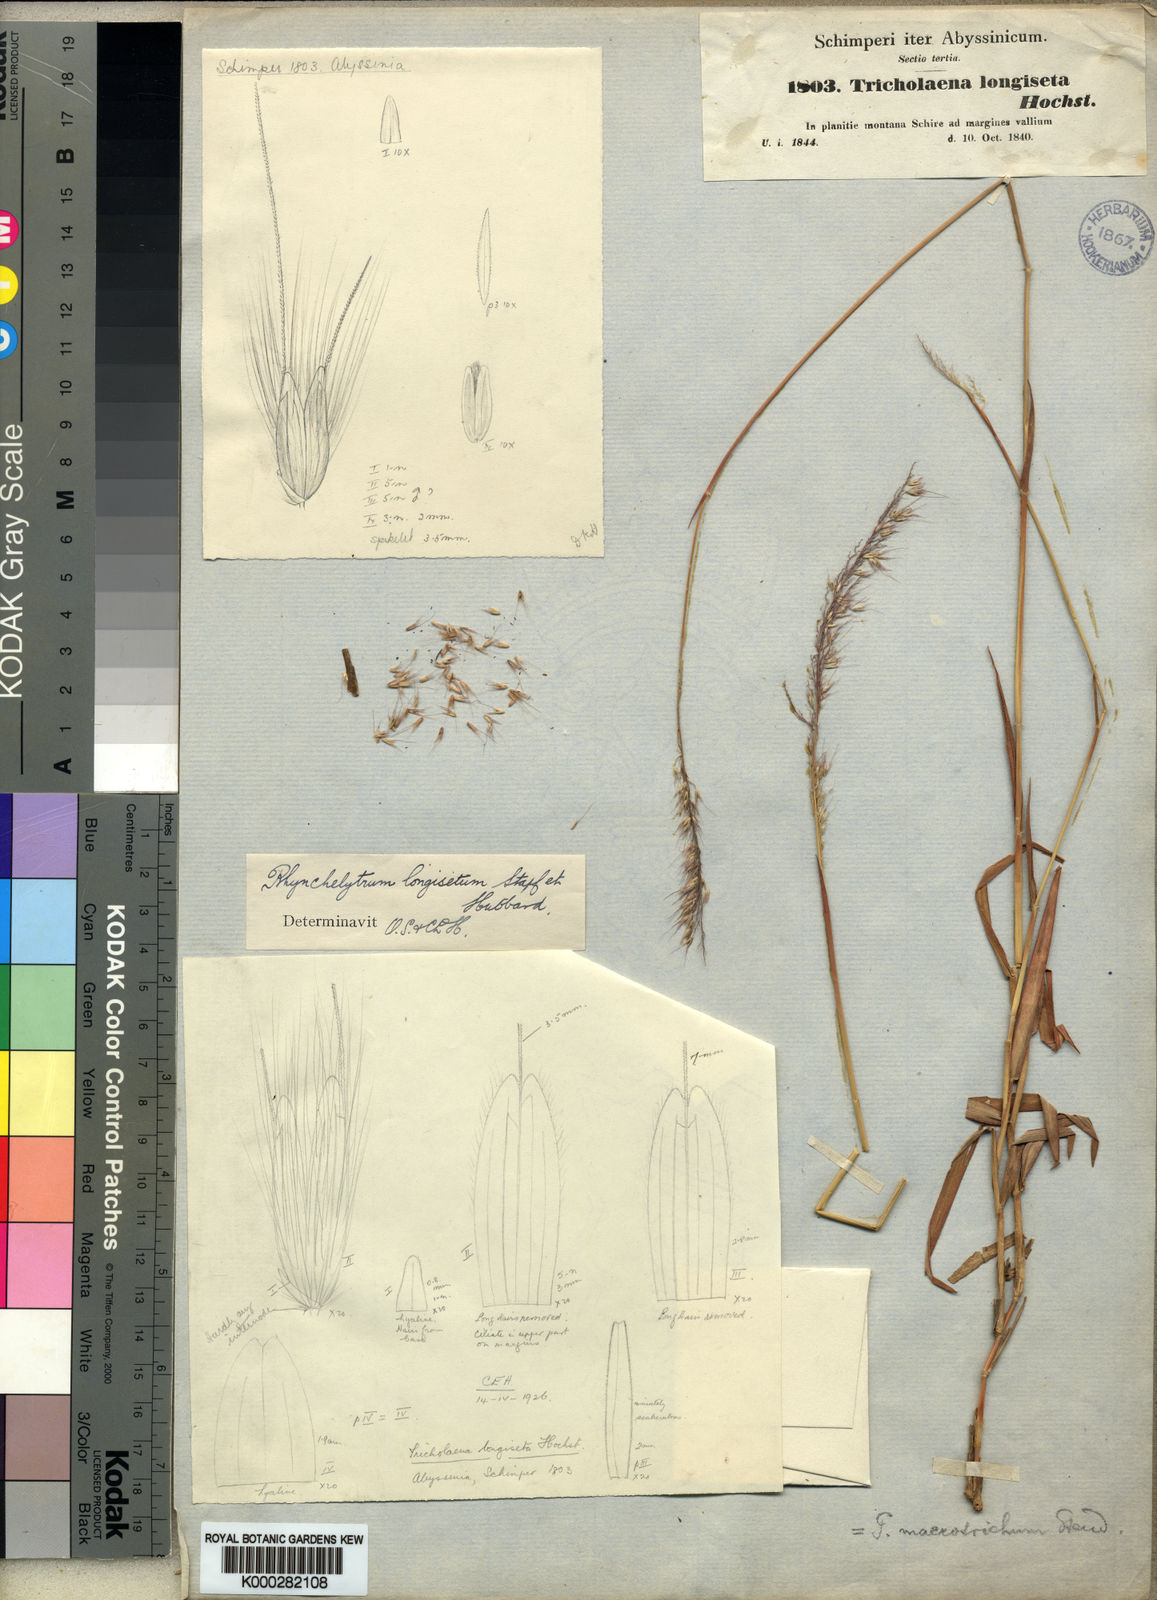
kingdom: Plantae
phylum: Tracheophyta
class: Liliopsida
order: Poales
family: Poaceae
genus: Melinis
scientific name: Melinis longiseta
